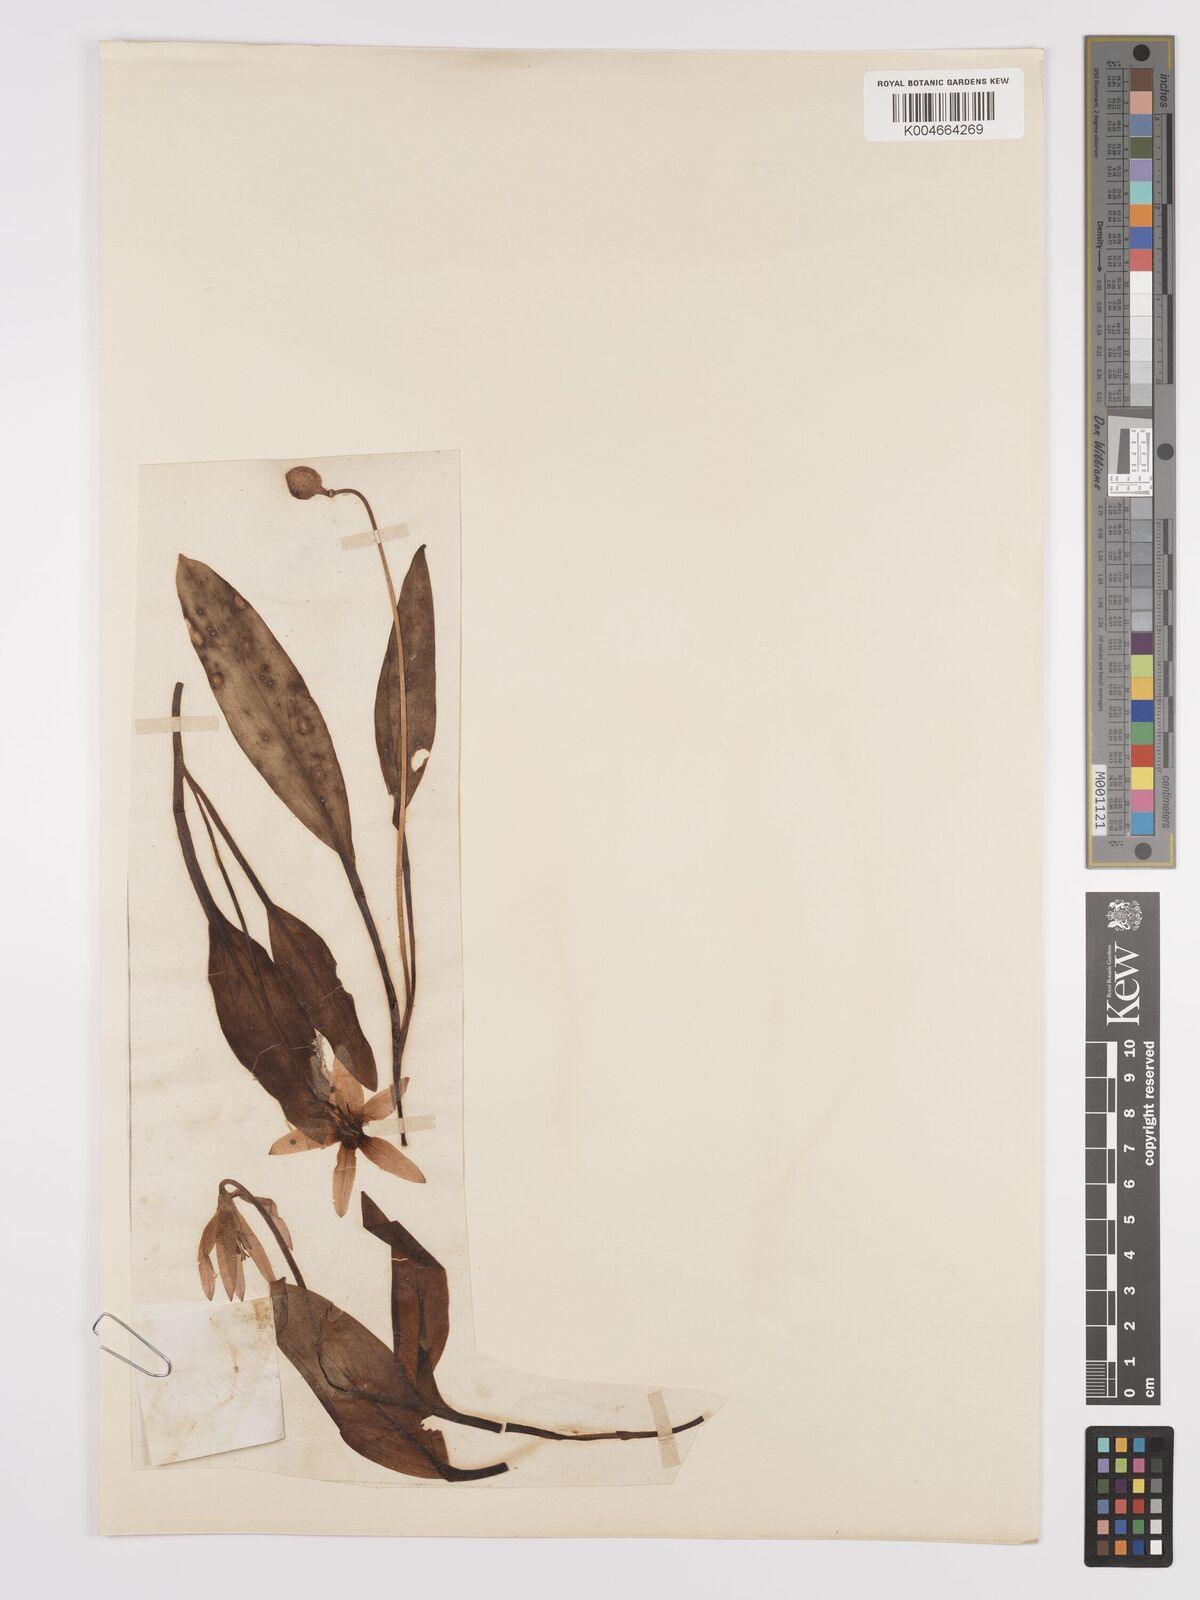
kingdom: Plantae
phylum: Tracheophyta
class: Liliopsida
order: Liliales
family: Liliaceae
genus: Erythronium
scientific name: Erythronium dens-canis
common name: Dog's-tooth-violet
